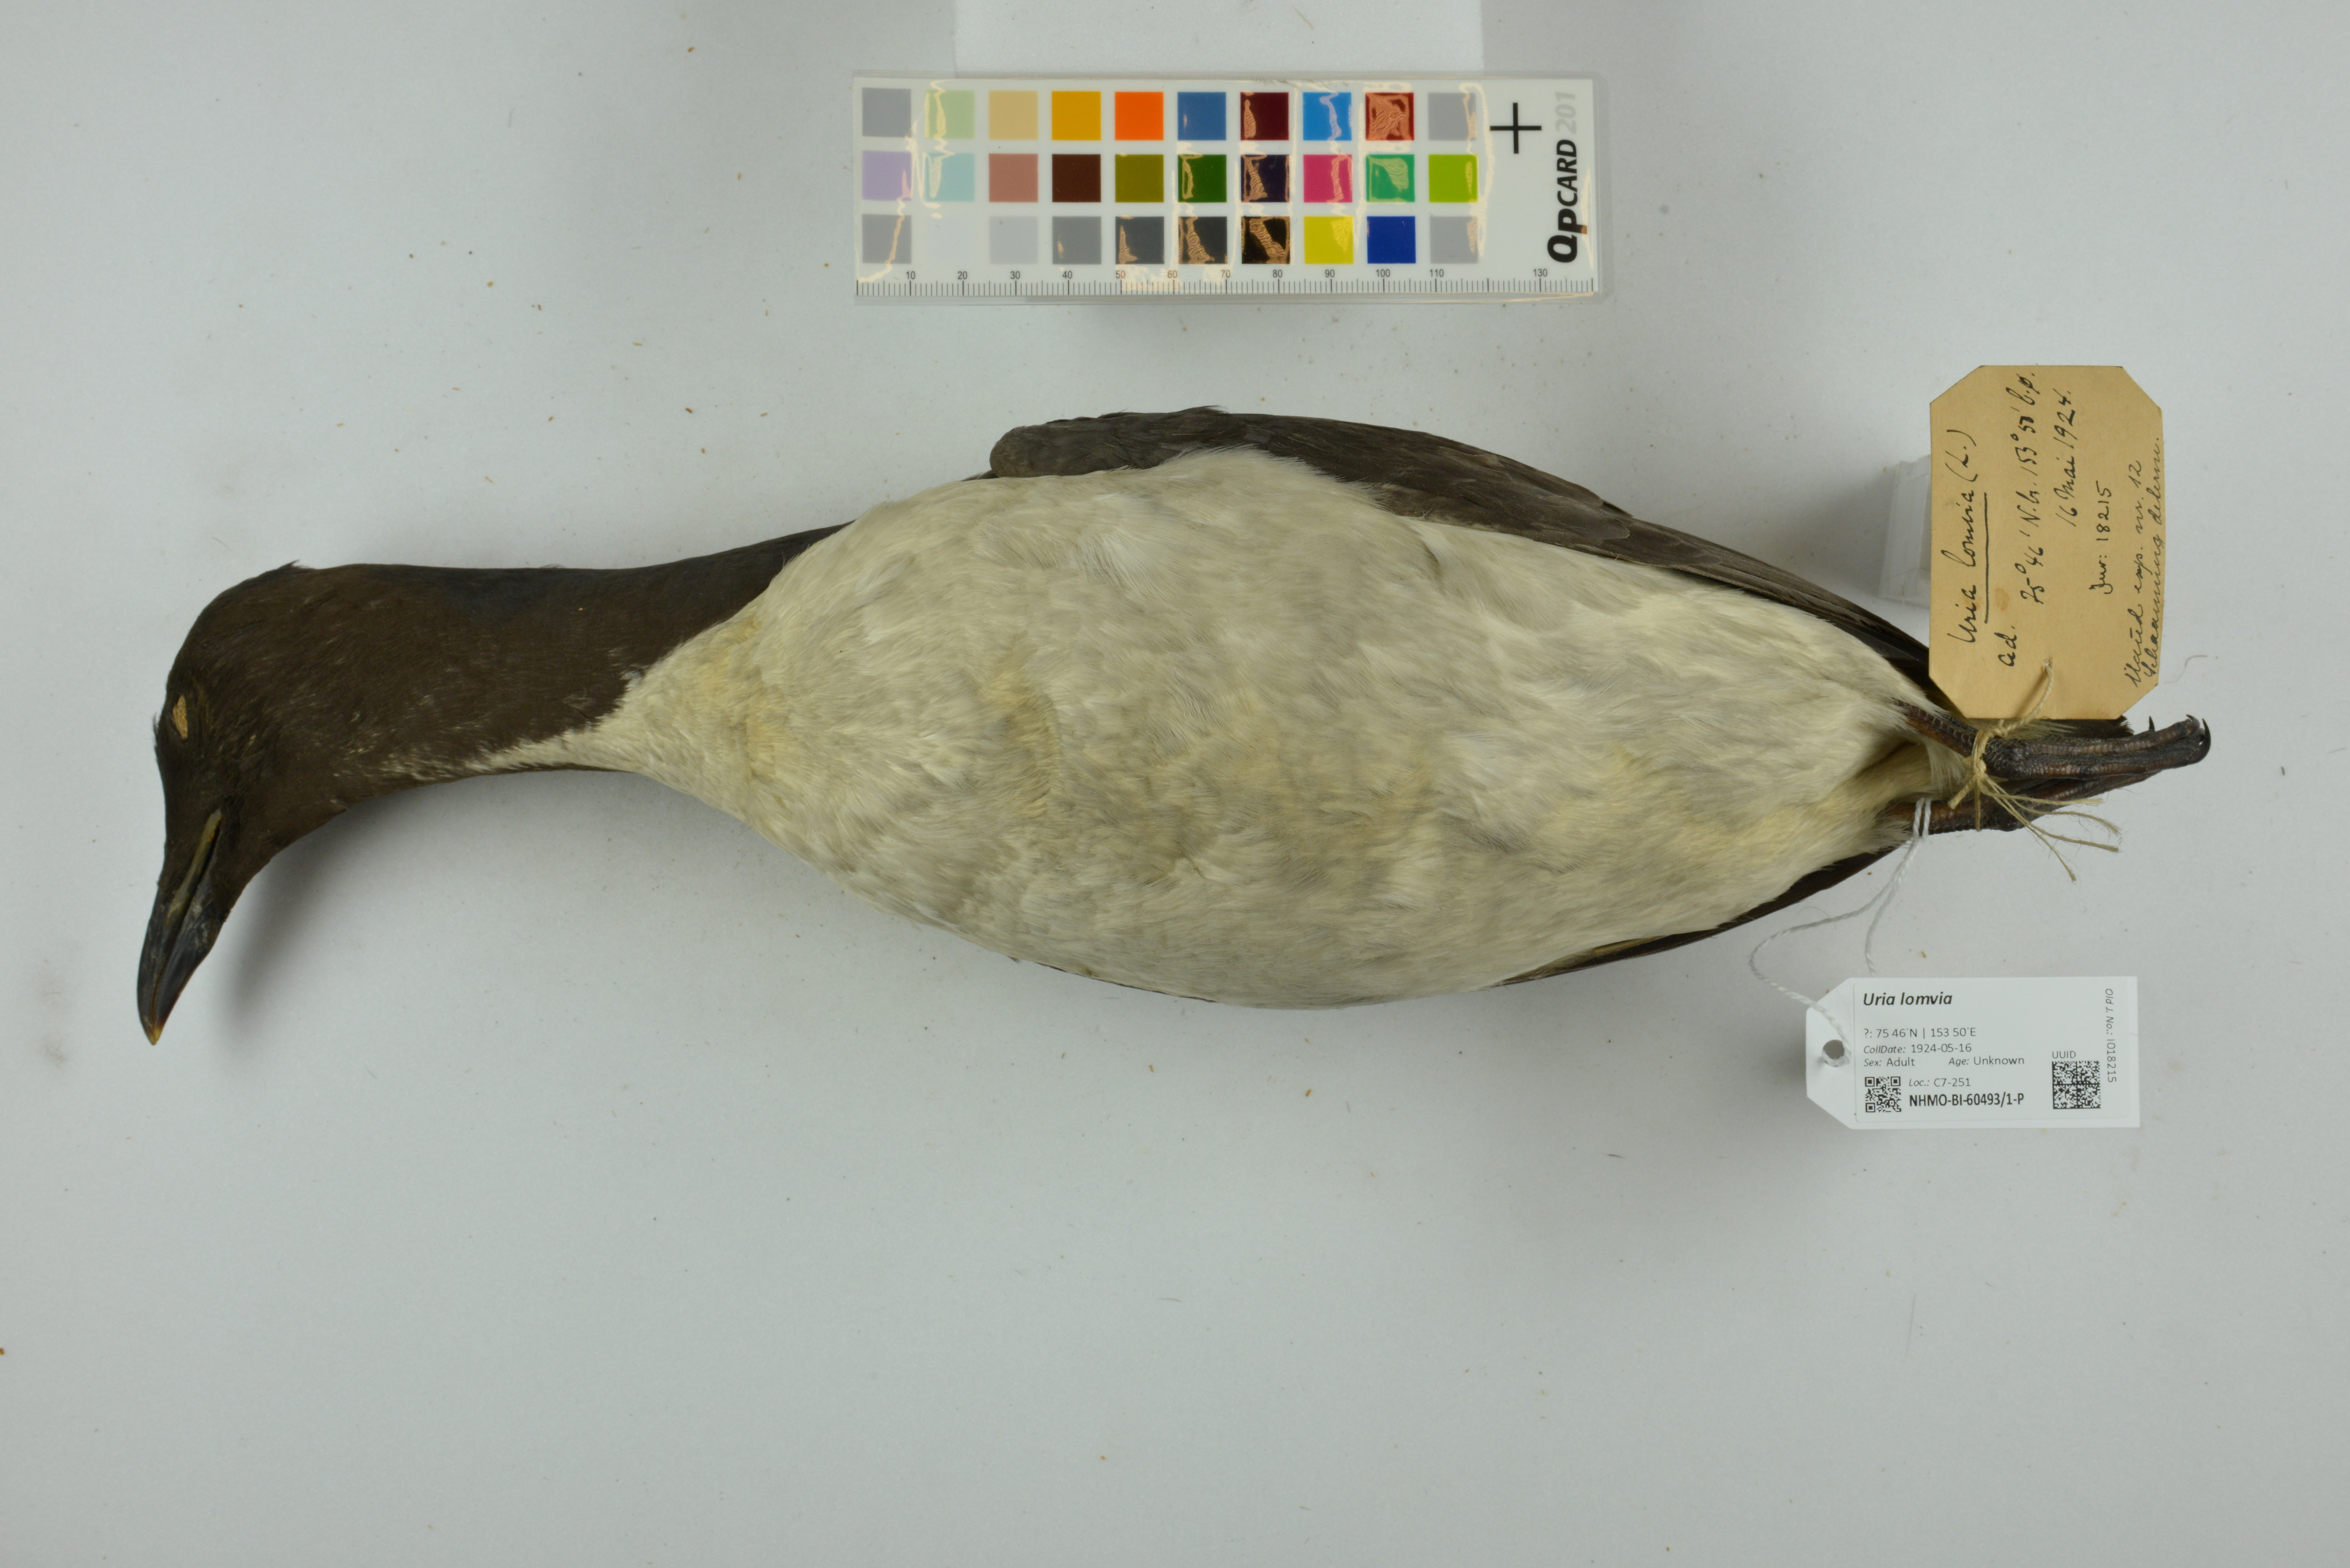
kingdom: Animalia
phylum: Chordata
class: Aves
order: Charadriiformes
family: Alcidae
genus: Uria
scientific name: Uria lomvia
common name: Thick-billed murre
